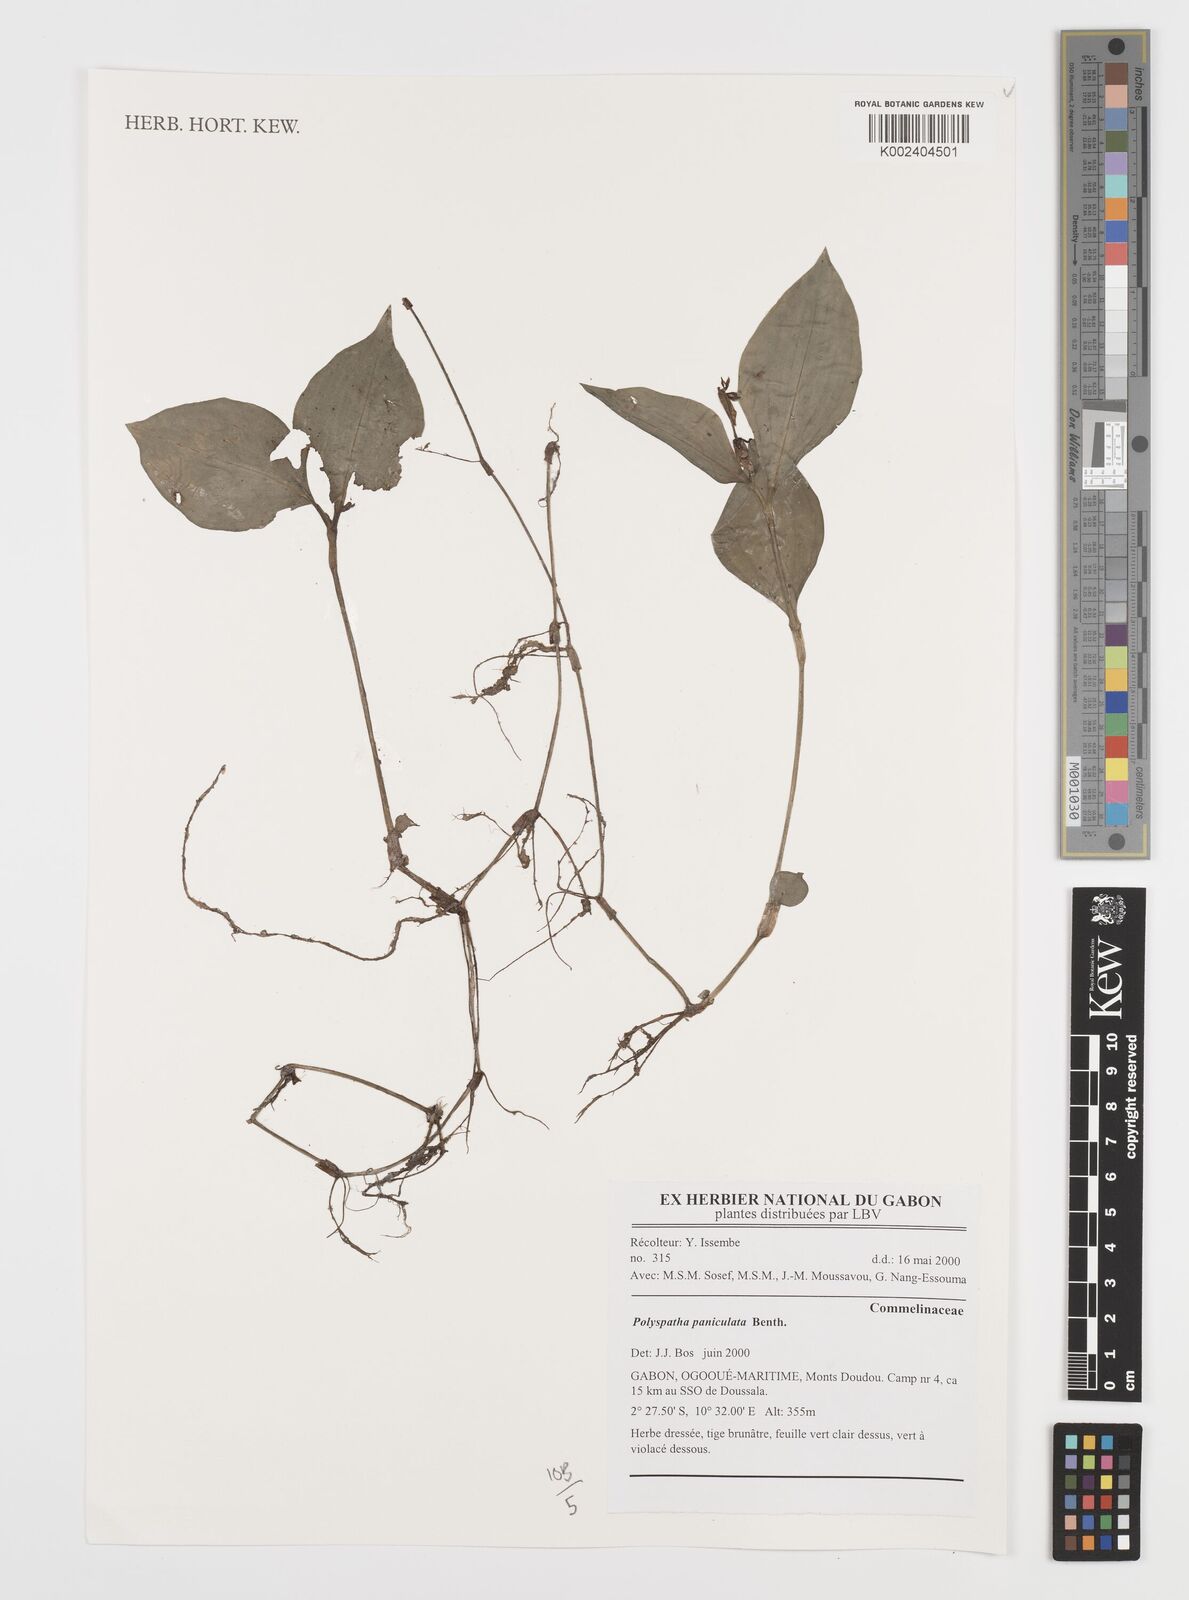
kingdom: Plantae
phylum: Tracheophyta
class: Liliopsida
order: Commelinales
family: Commelinaceae
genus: Polyspatha
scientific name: Polyspatha paniculata
